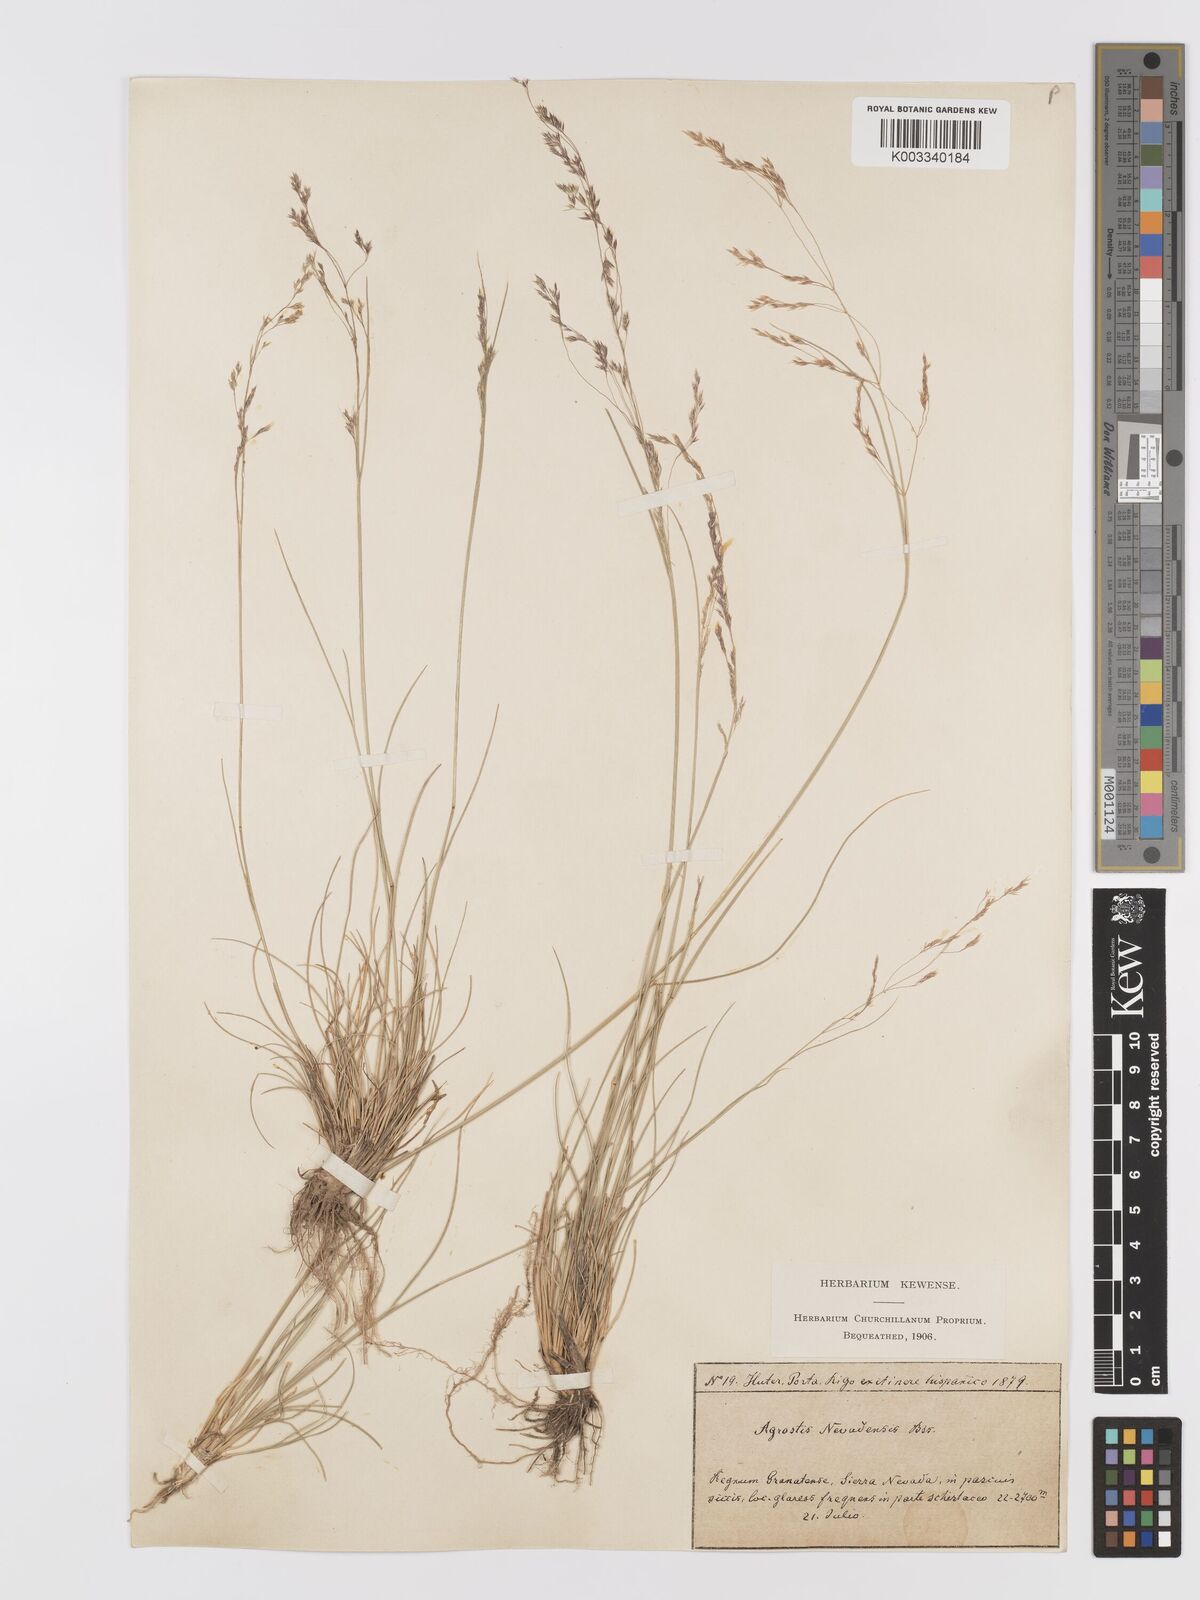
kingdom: Plantae
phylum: Tracheophyta
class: Liliopsida
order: Poales
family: Poaceae
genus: Agrostis
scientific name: Agrostis nevadensis
